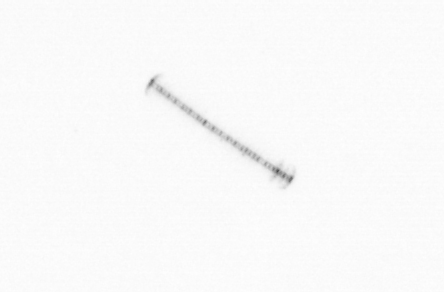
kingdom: Chromista
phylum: Ochrophyta
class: Bacillariophyceae
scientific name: Bacillariophyceae
